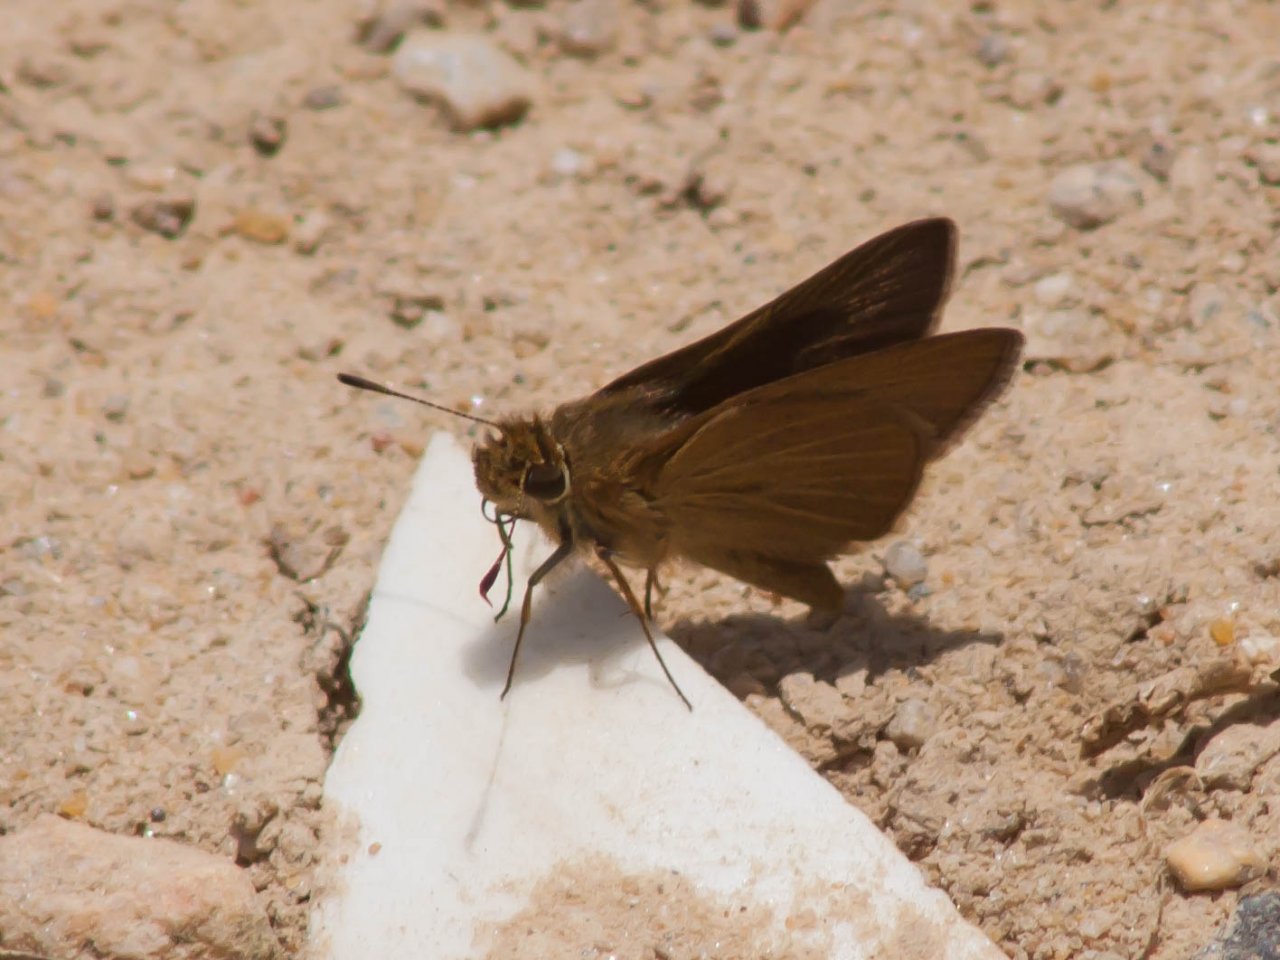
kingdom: Animalia
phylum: Arthropoda
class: Insecta
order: Lepidoptera
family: Hesperiidae
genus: Nastra
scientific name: Nastra lherminier
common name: Swarthy Skipper
